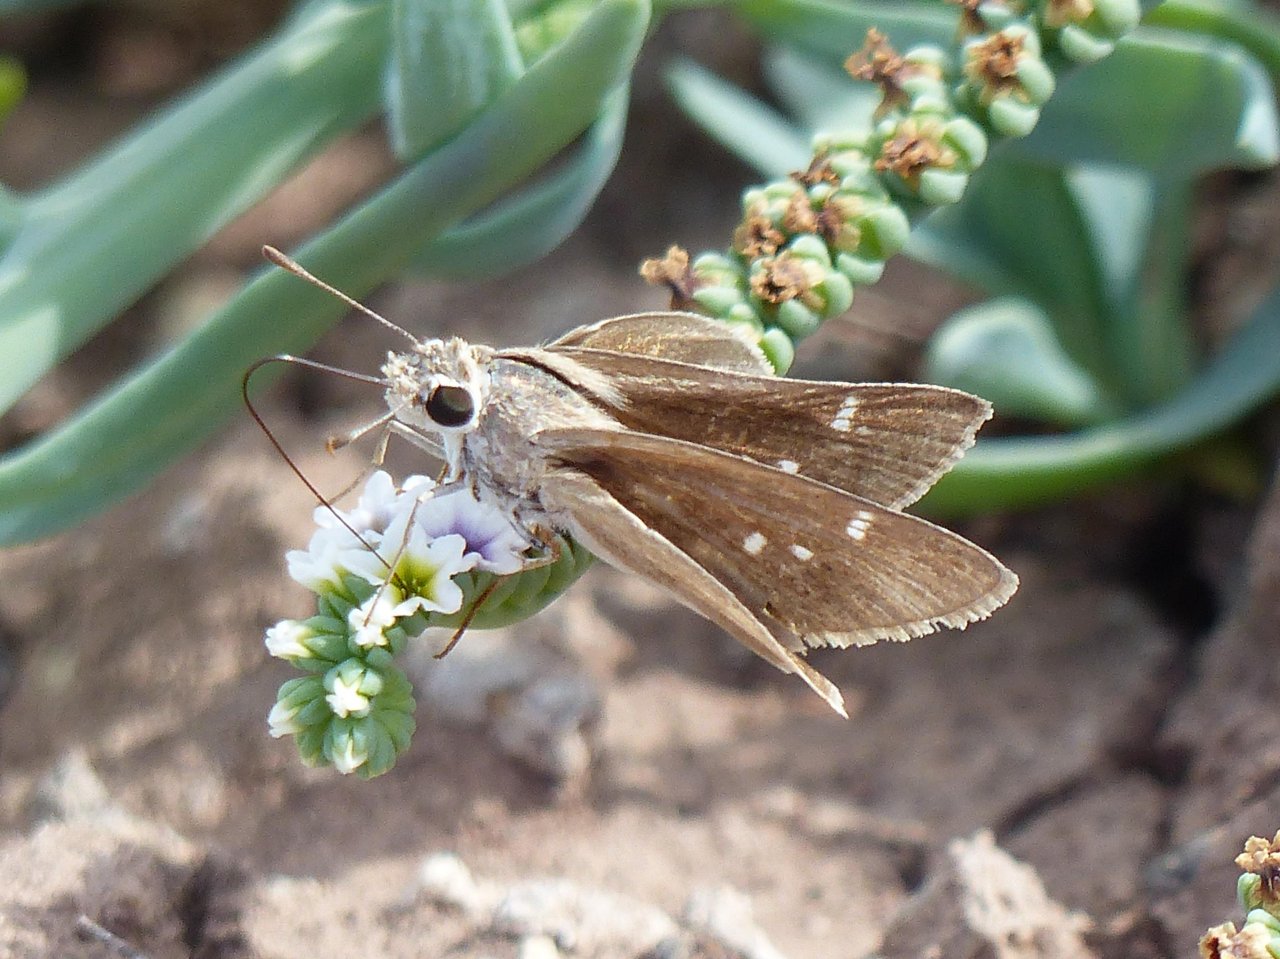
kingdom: Animalia
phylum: Arthropoda
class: Insecta
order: Lepidoptera
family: Hesperiidae
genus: Lerodea
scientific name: Lerodea eufala
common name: Eufala Skipper
